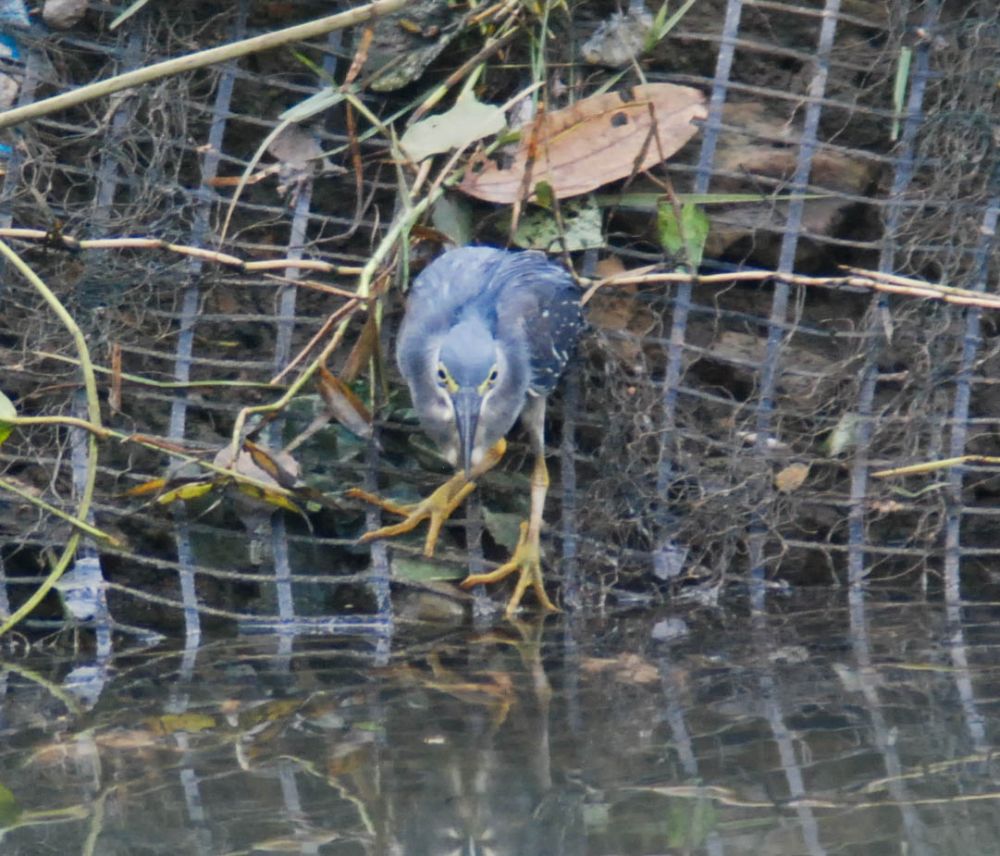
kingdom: Animalia
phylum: Chordata
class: Aves
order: Pelecaniformes
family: Ardeidae
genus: Butorides
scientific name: Butorides striata
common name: Striated heron
